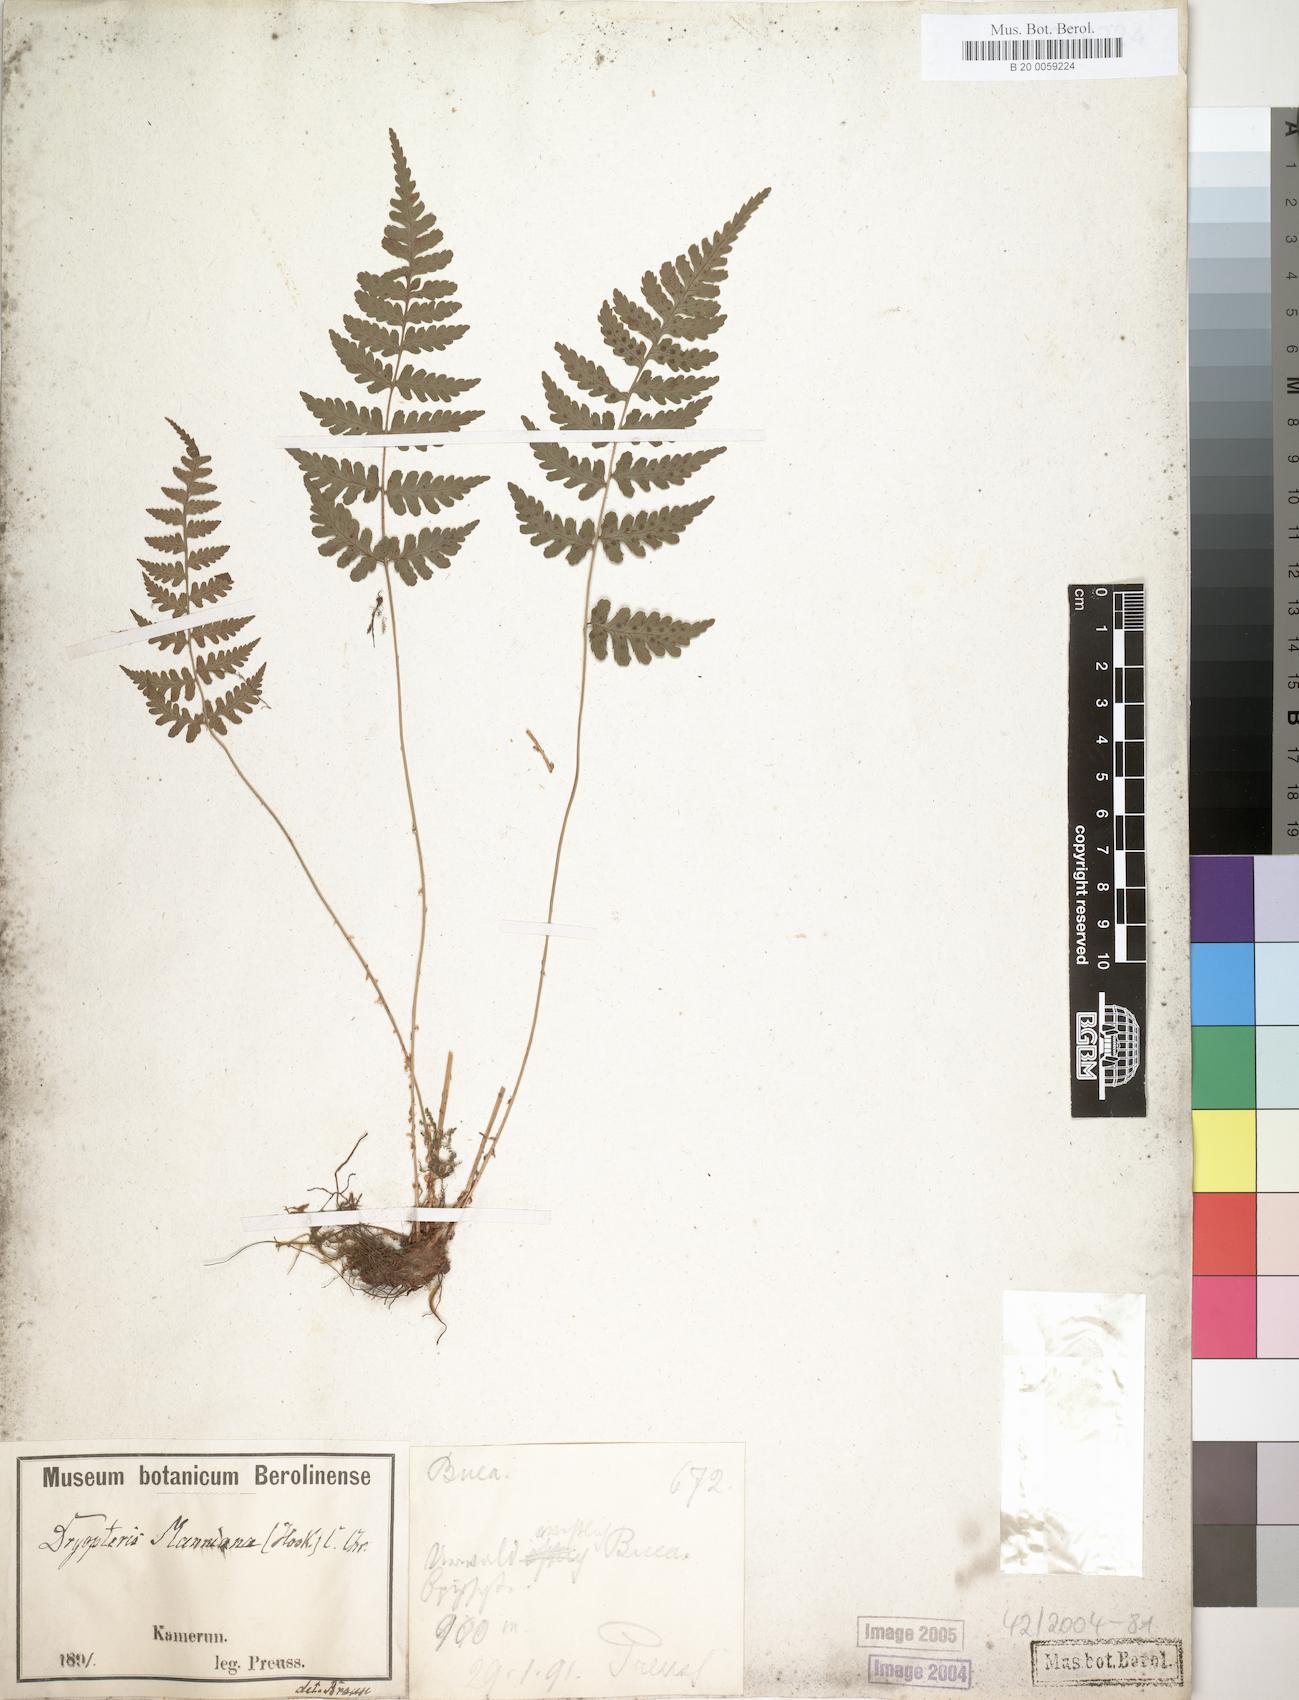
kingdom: Plantae
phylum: Tracheophyta
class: Polypodiopsida
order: Polypodiales
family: Dryopteridaceae
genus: Dryopteris
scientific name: Dryopteris manniana
